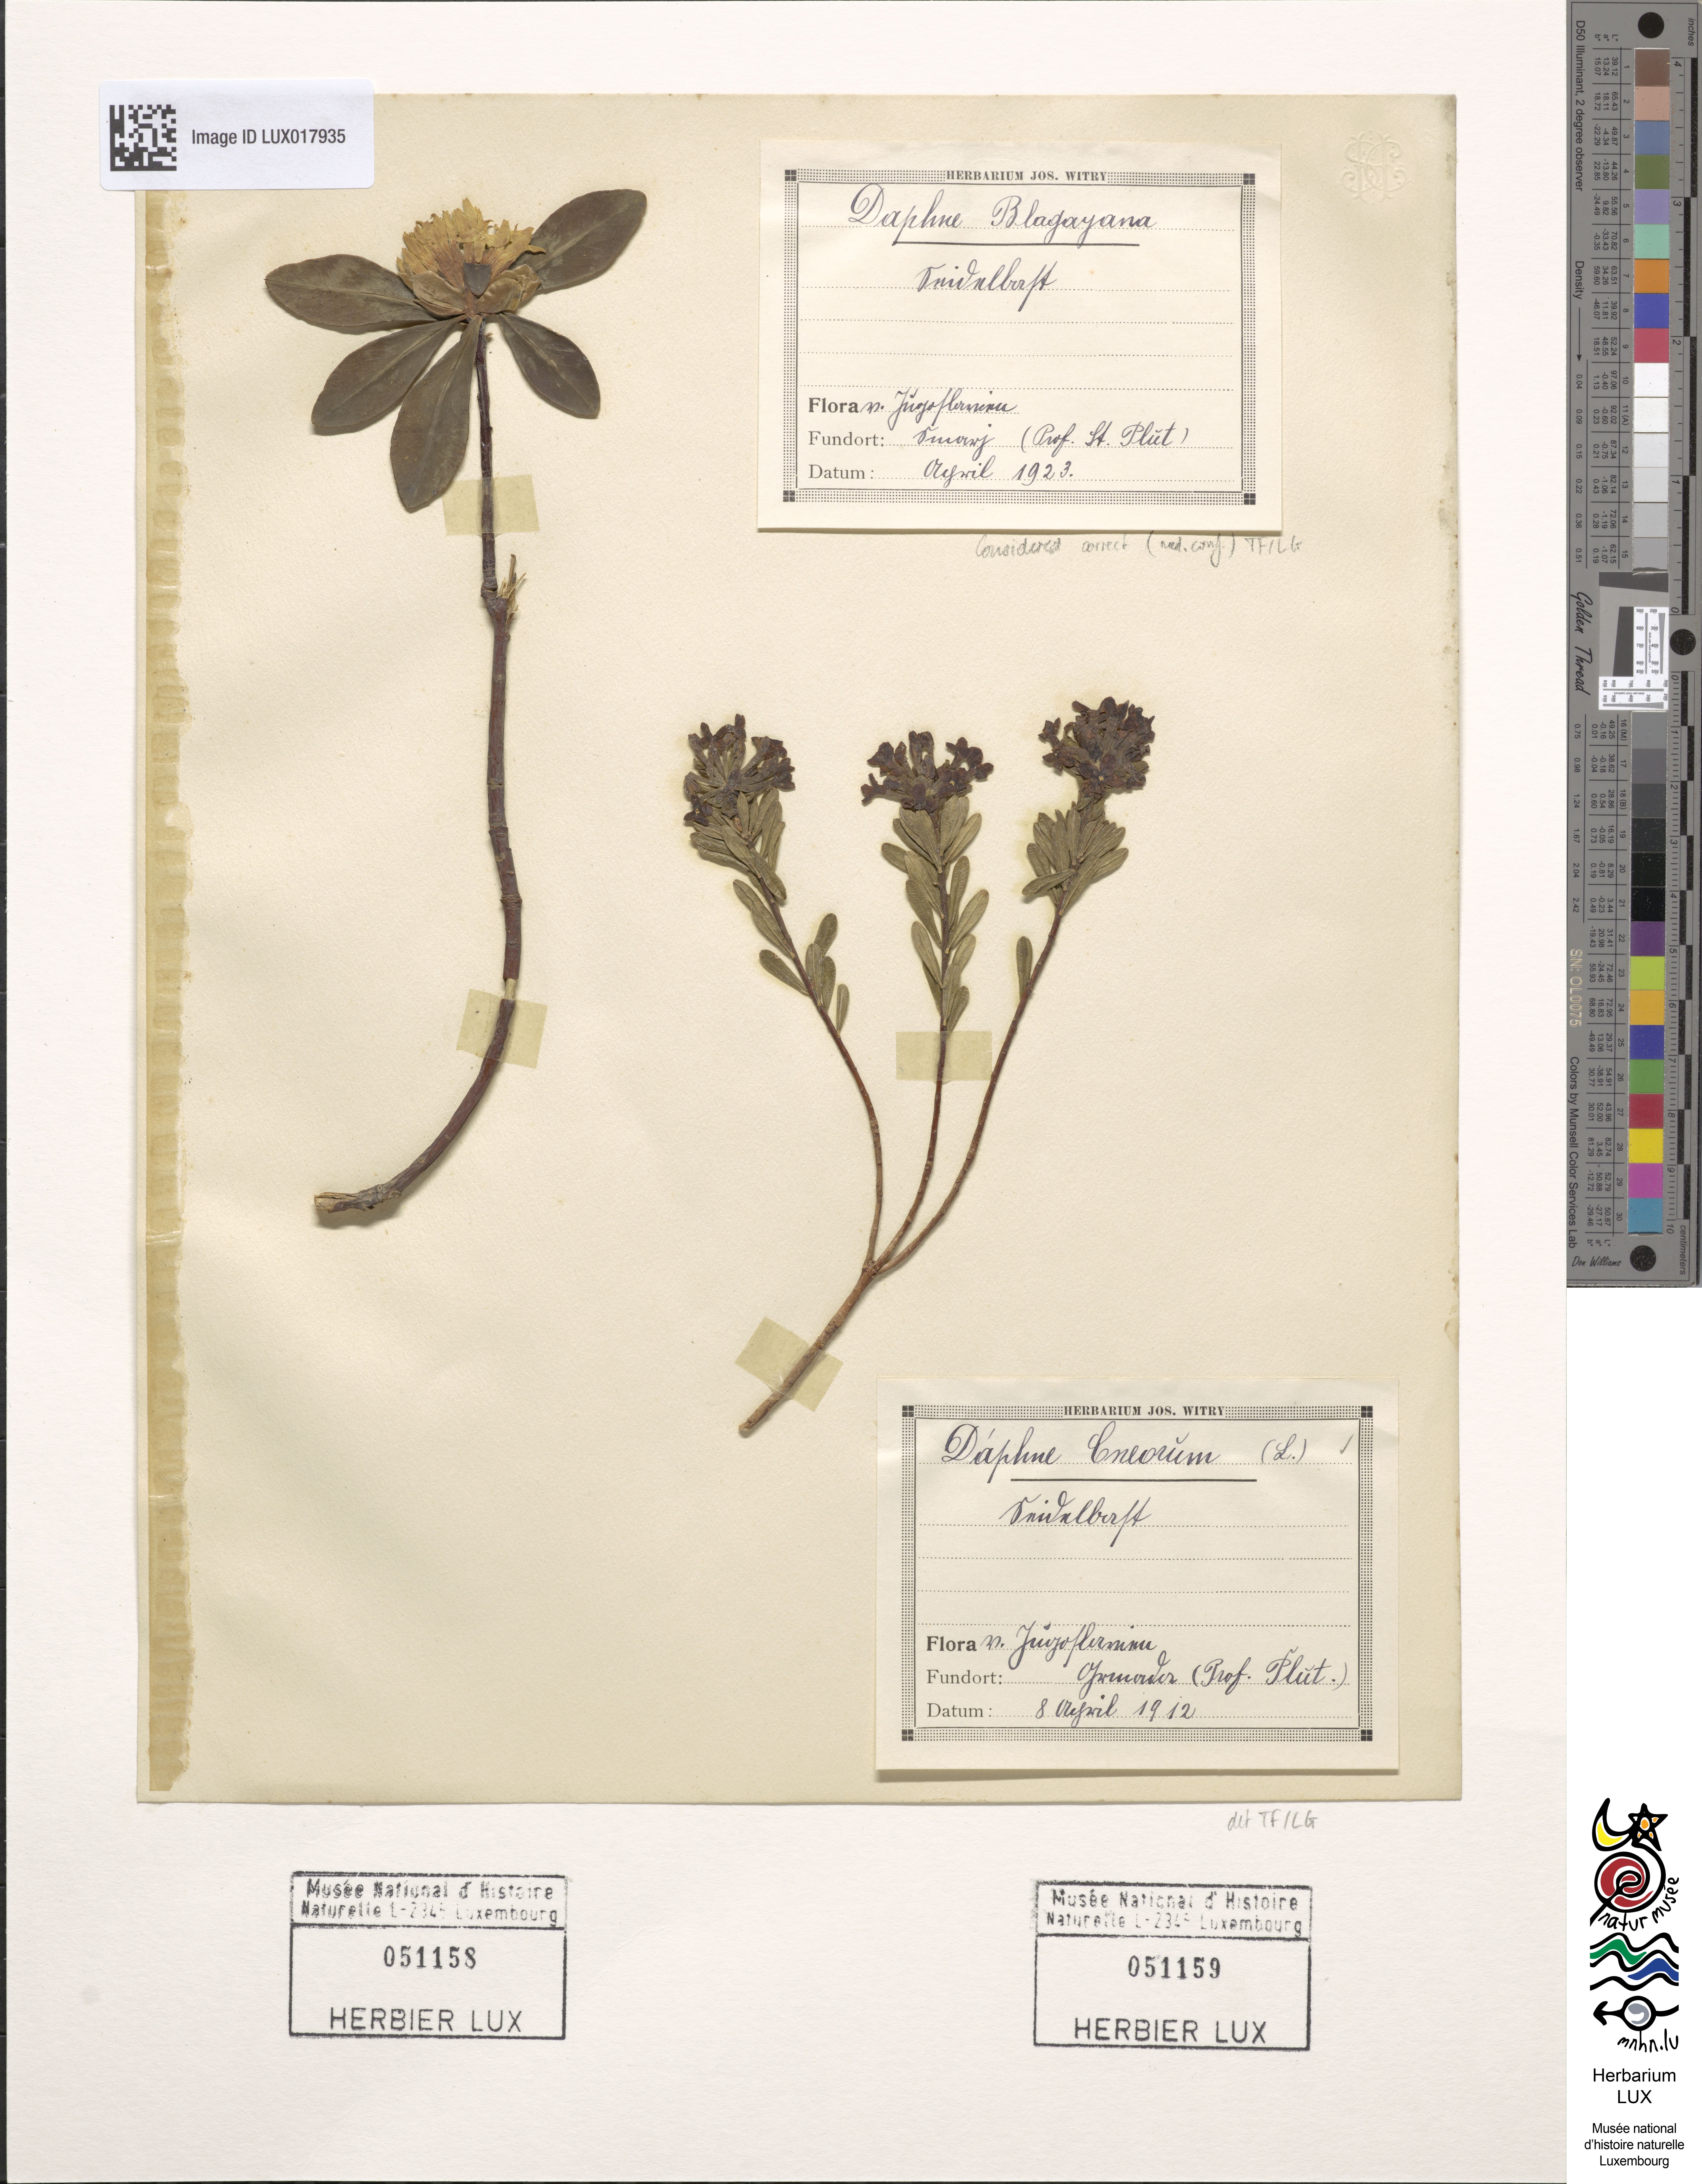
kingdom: Plantae
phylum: Tracheophyta
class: Magnoliopsida
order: Malvales
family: Thymelaeaceae
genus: Daphne
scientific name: Daphne blagayana
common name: Balkan daphne
